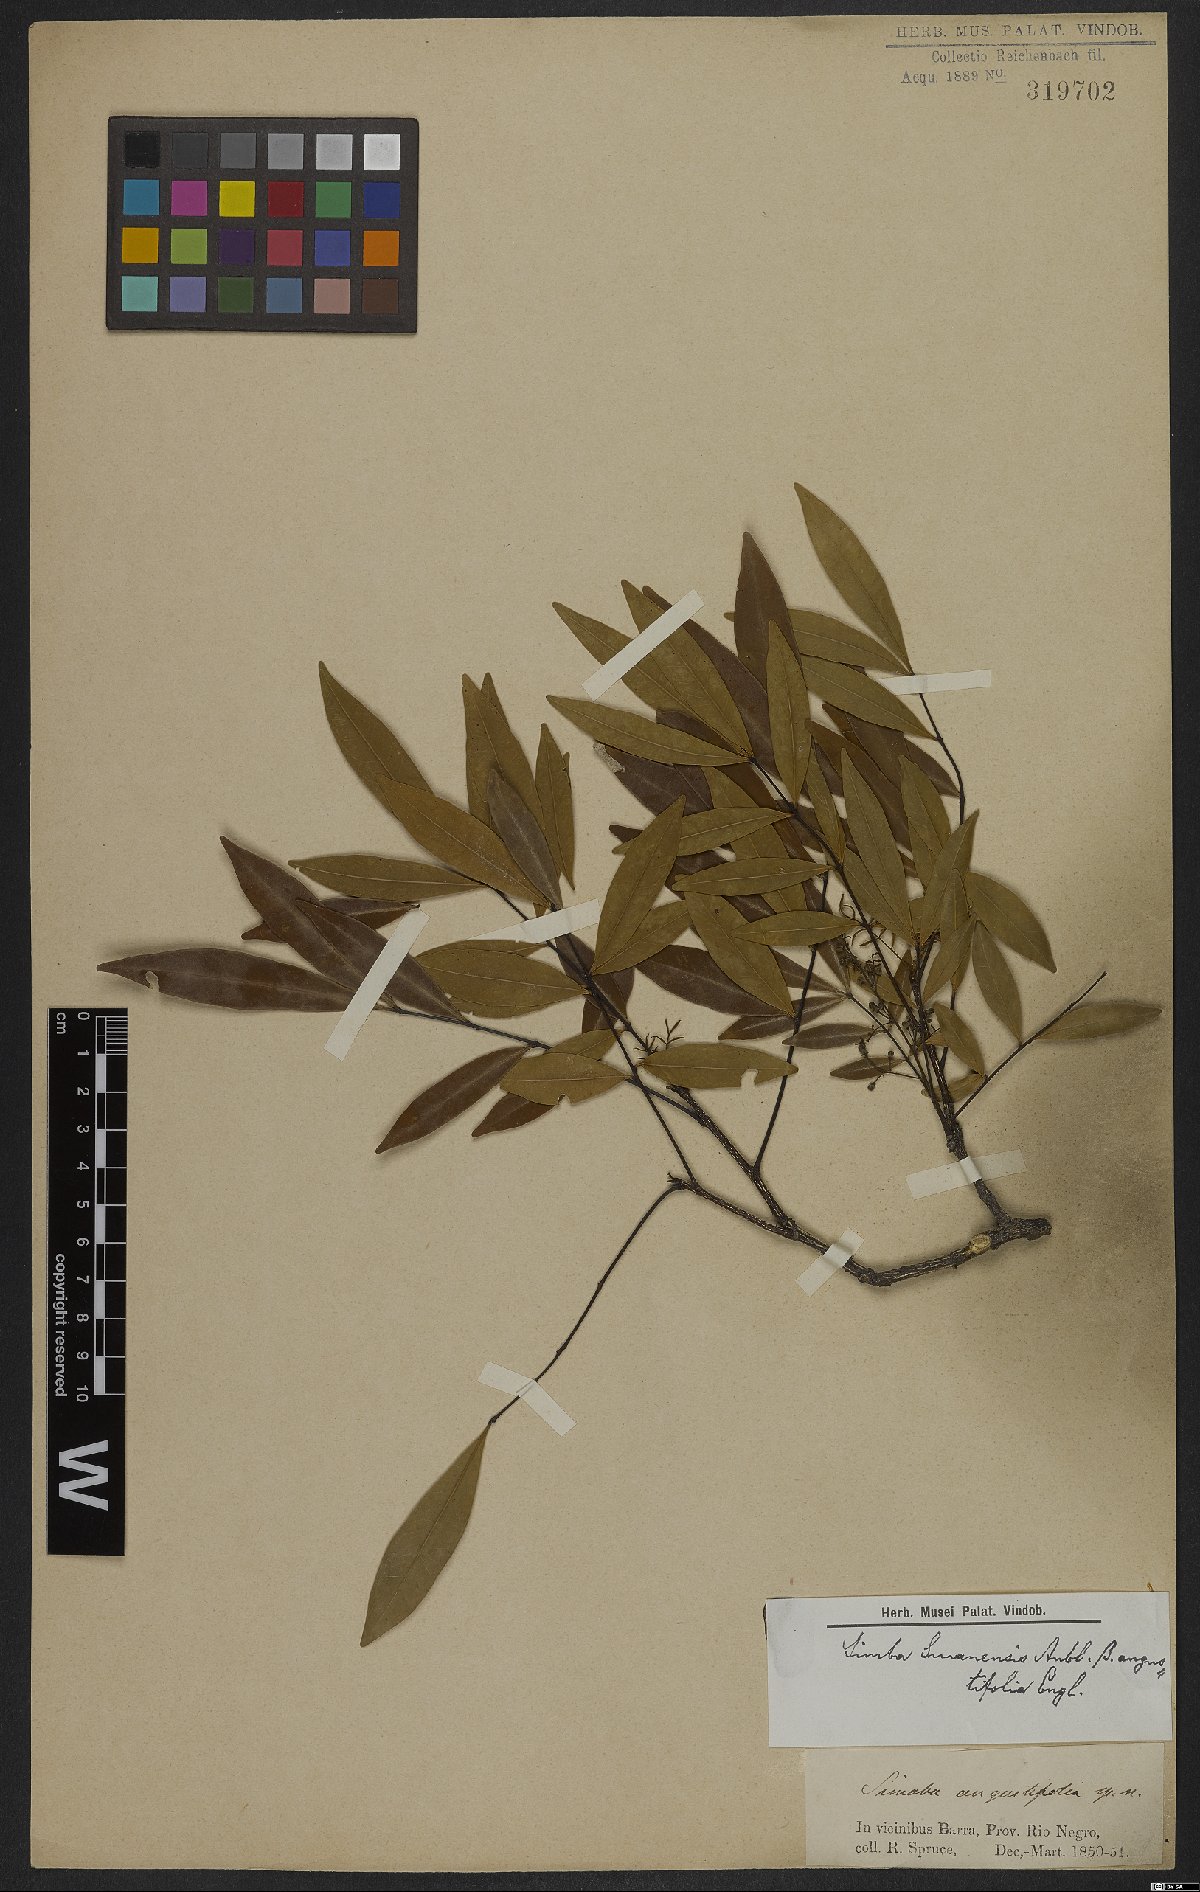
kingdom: Plantae
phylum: Tracheophyta
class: Magnoliopsida
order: Sapindales
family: Simaroubaceae
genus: Simaba
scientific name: Simaba orinocensis
